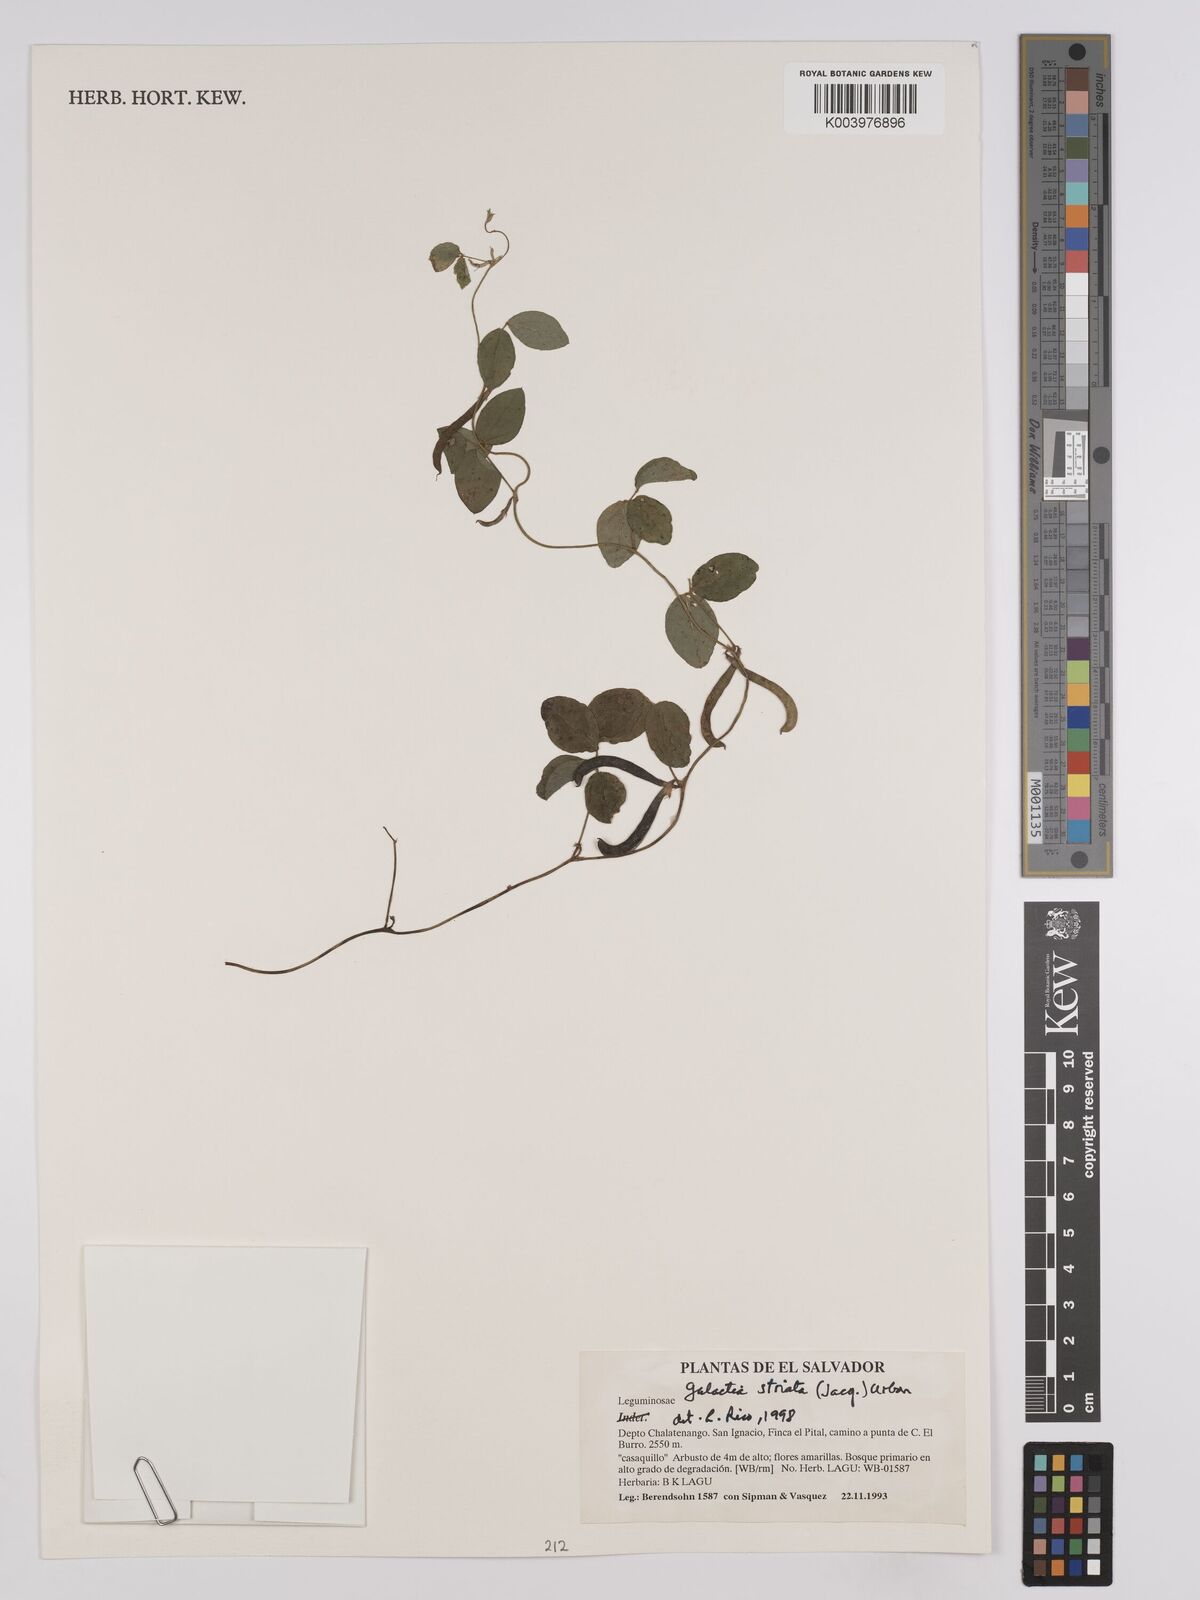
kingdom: Plantae
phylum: Tracheophyta
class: Magnoliopsida
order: Fabales
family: Fabaceae
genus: Galactia
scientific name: Galactia striata
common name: Florida hammock milkpea
